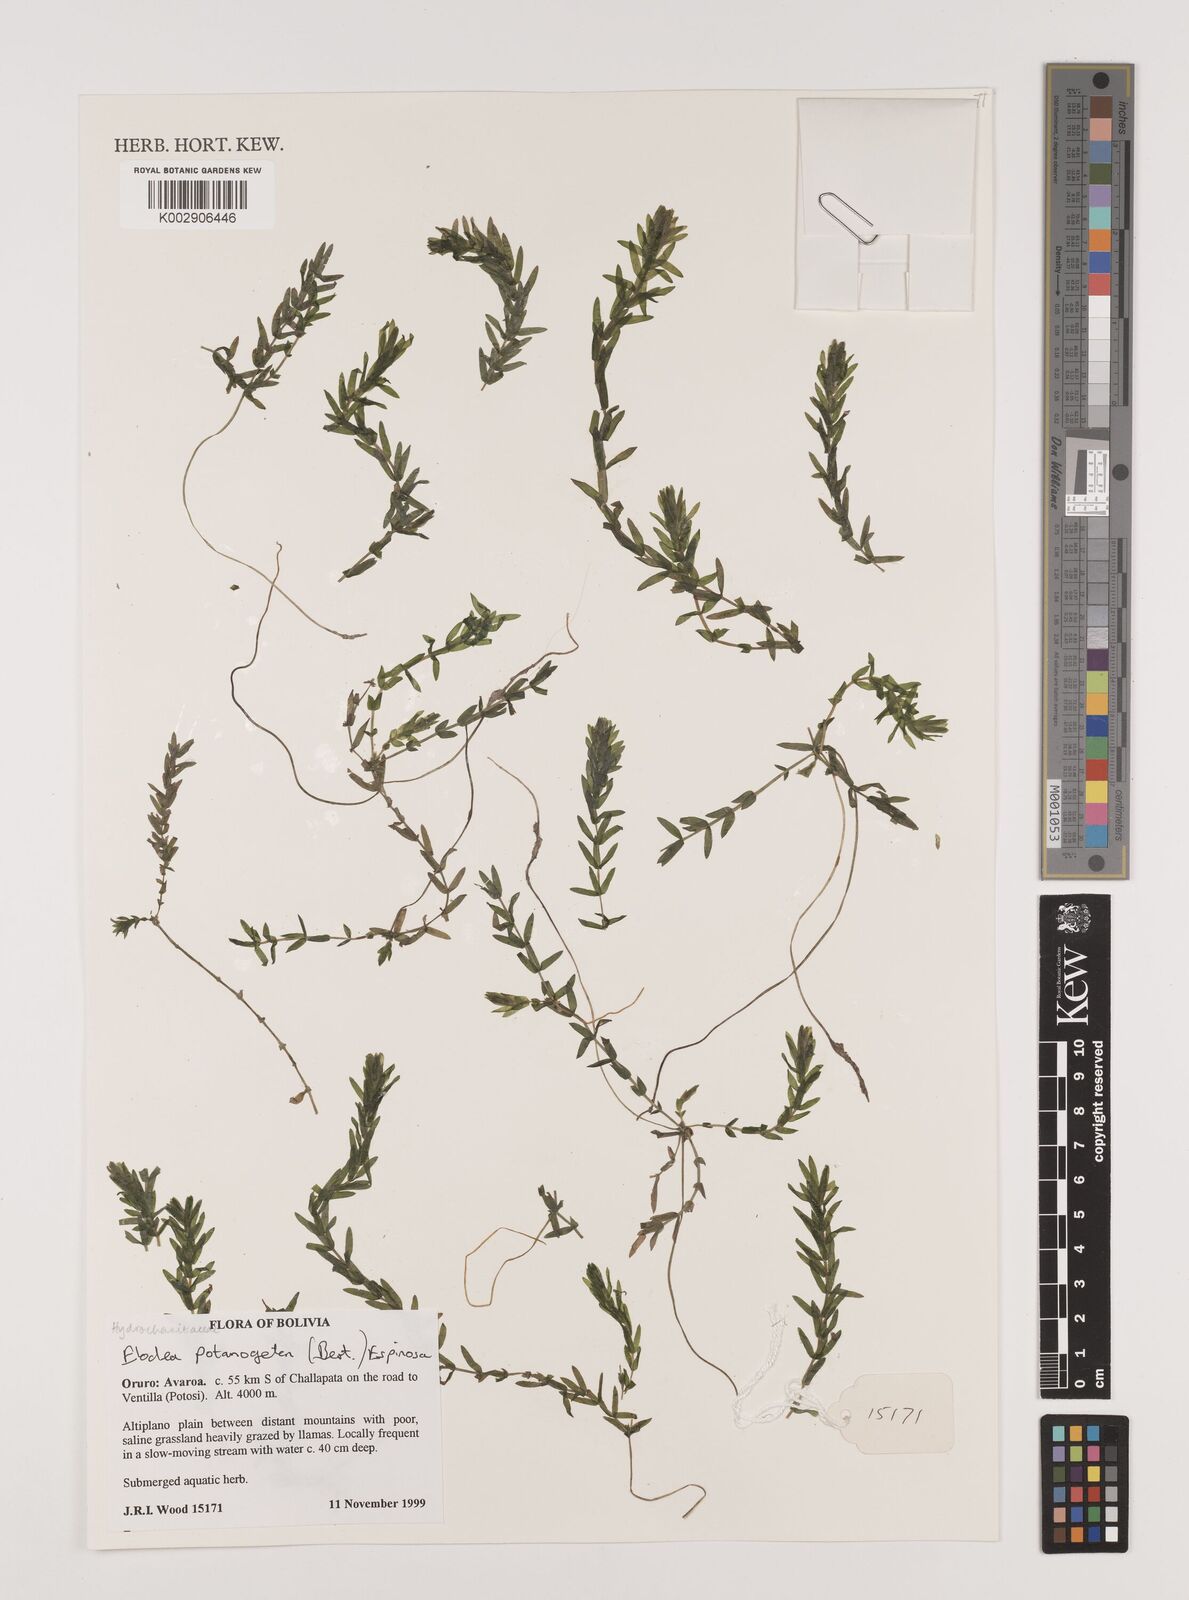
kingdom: Plantae
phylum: Tracheophyta
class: Liliopsida
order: Alismatales
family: Hydrocharitaceae
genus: Elodea
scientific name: Elodea potamogeton
